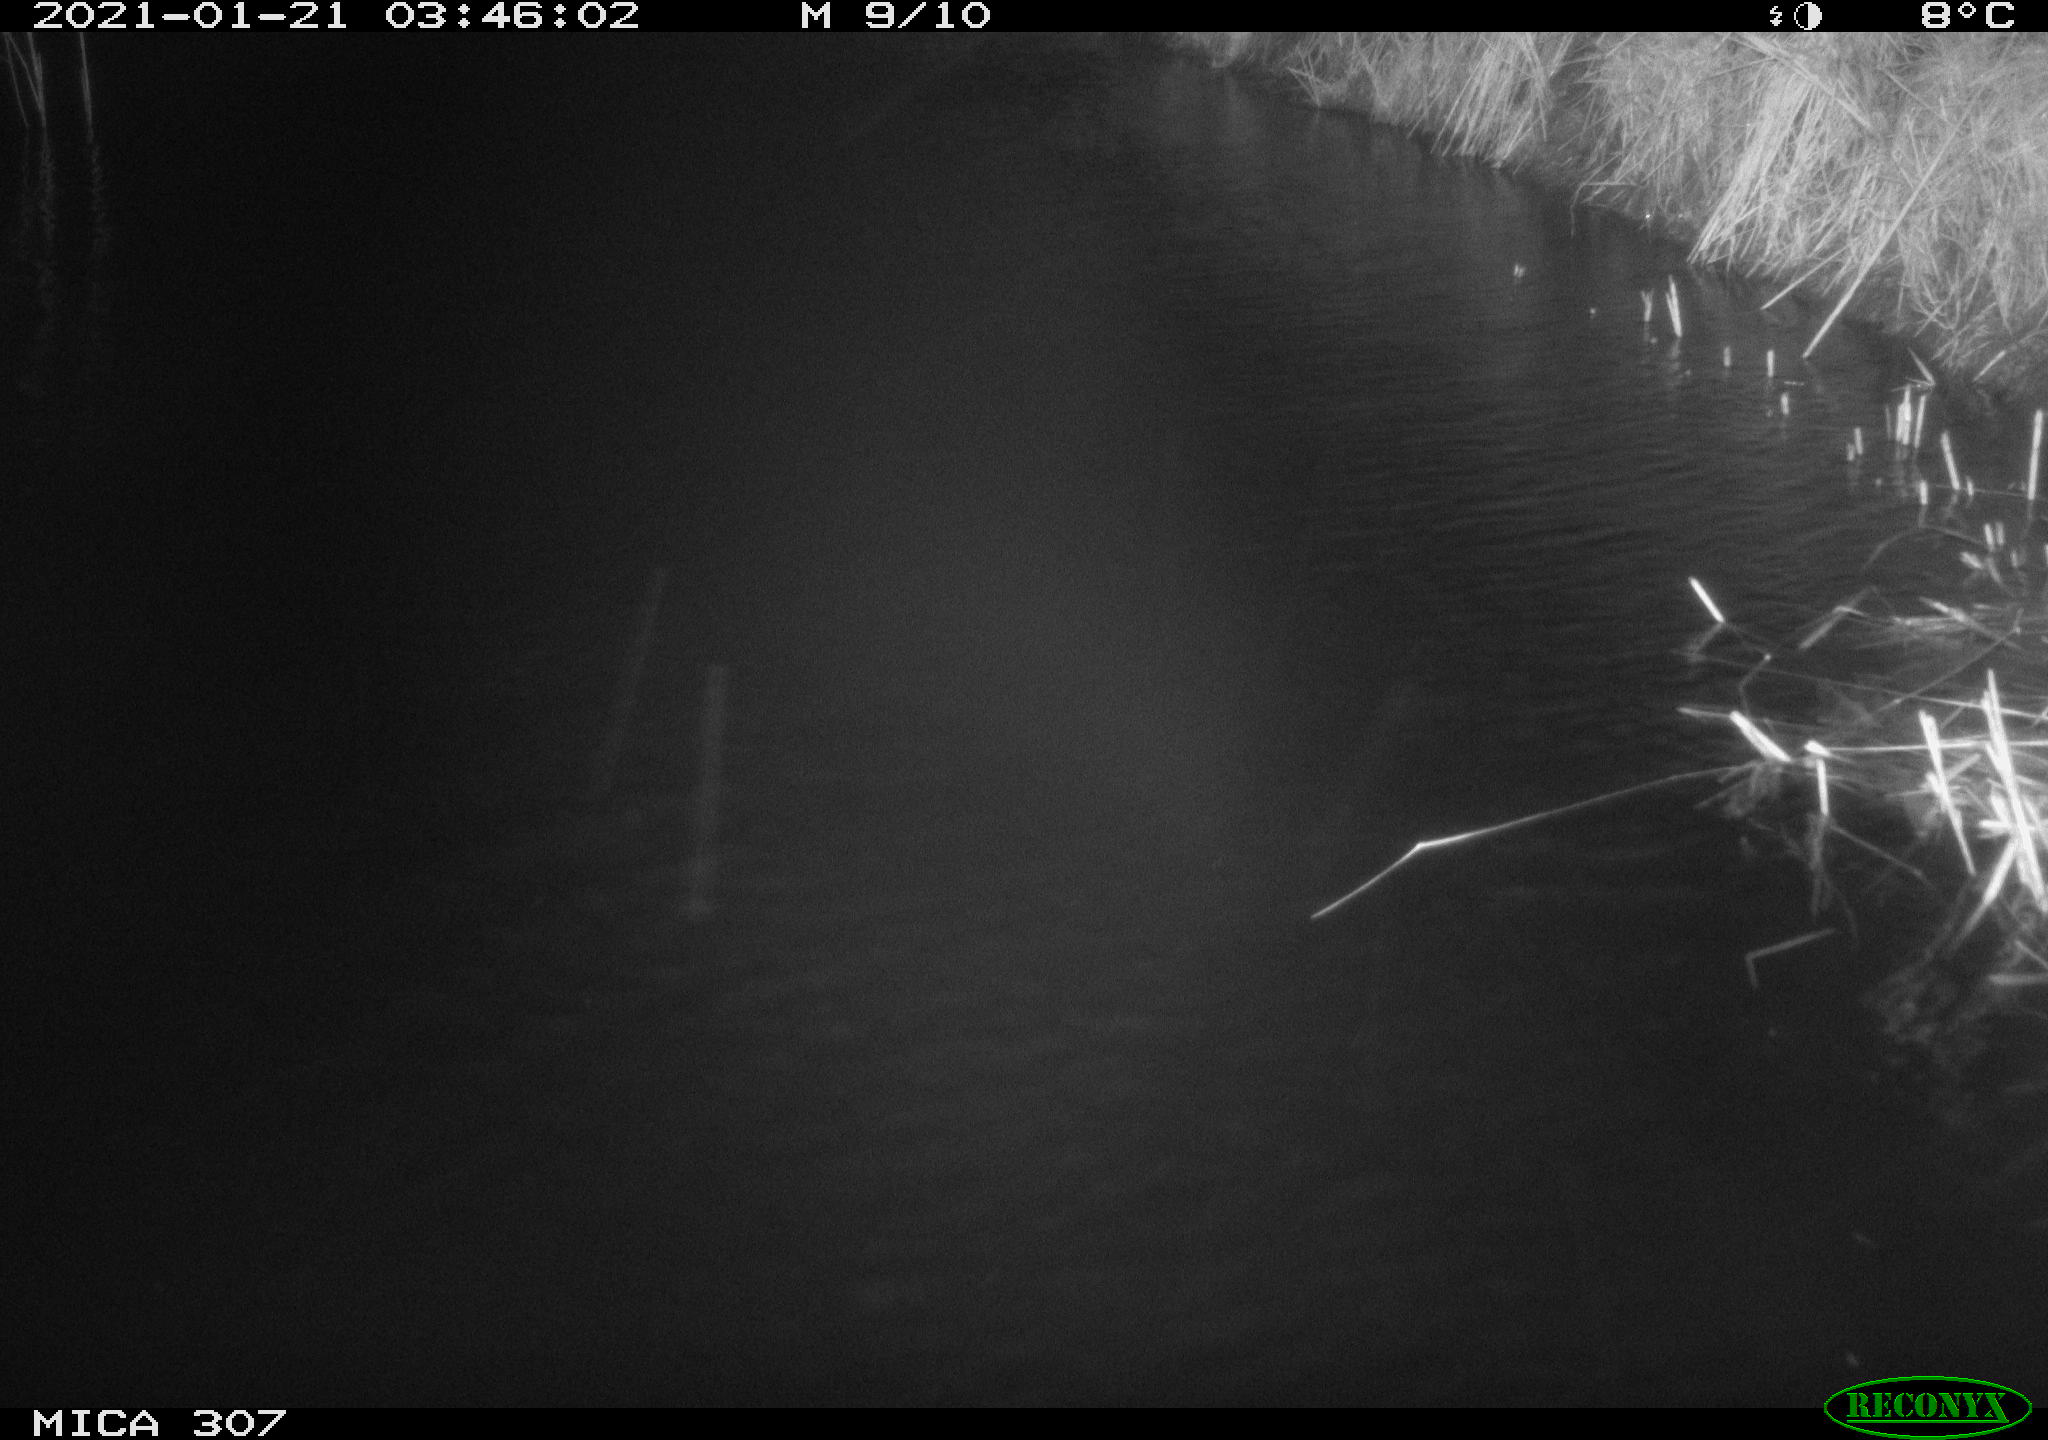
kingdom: Animalia
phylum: Chordata
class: Mammalia
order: Rodentia
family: Muridae
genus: Rattus
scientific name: Rattus norvegicus
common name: Brown rat
